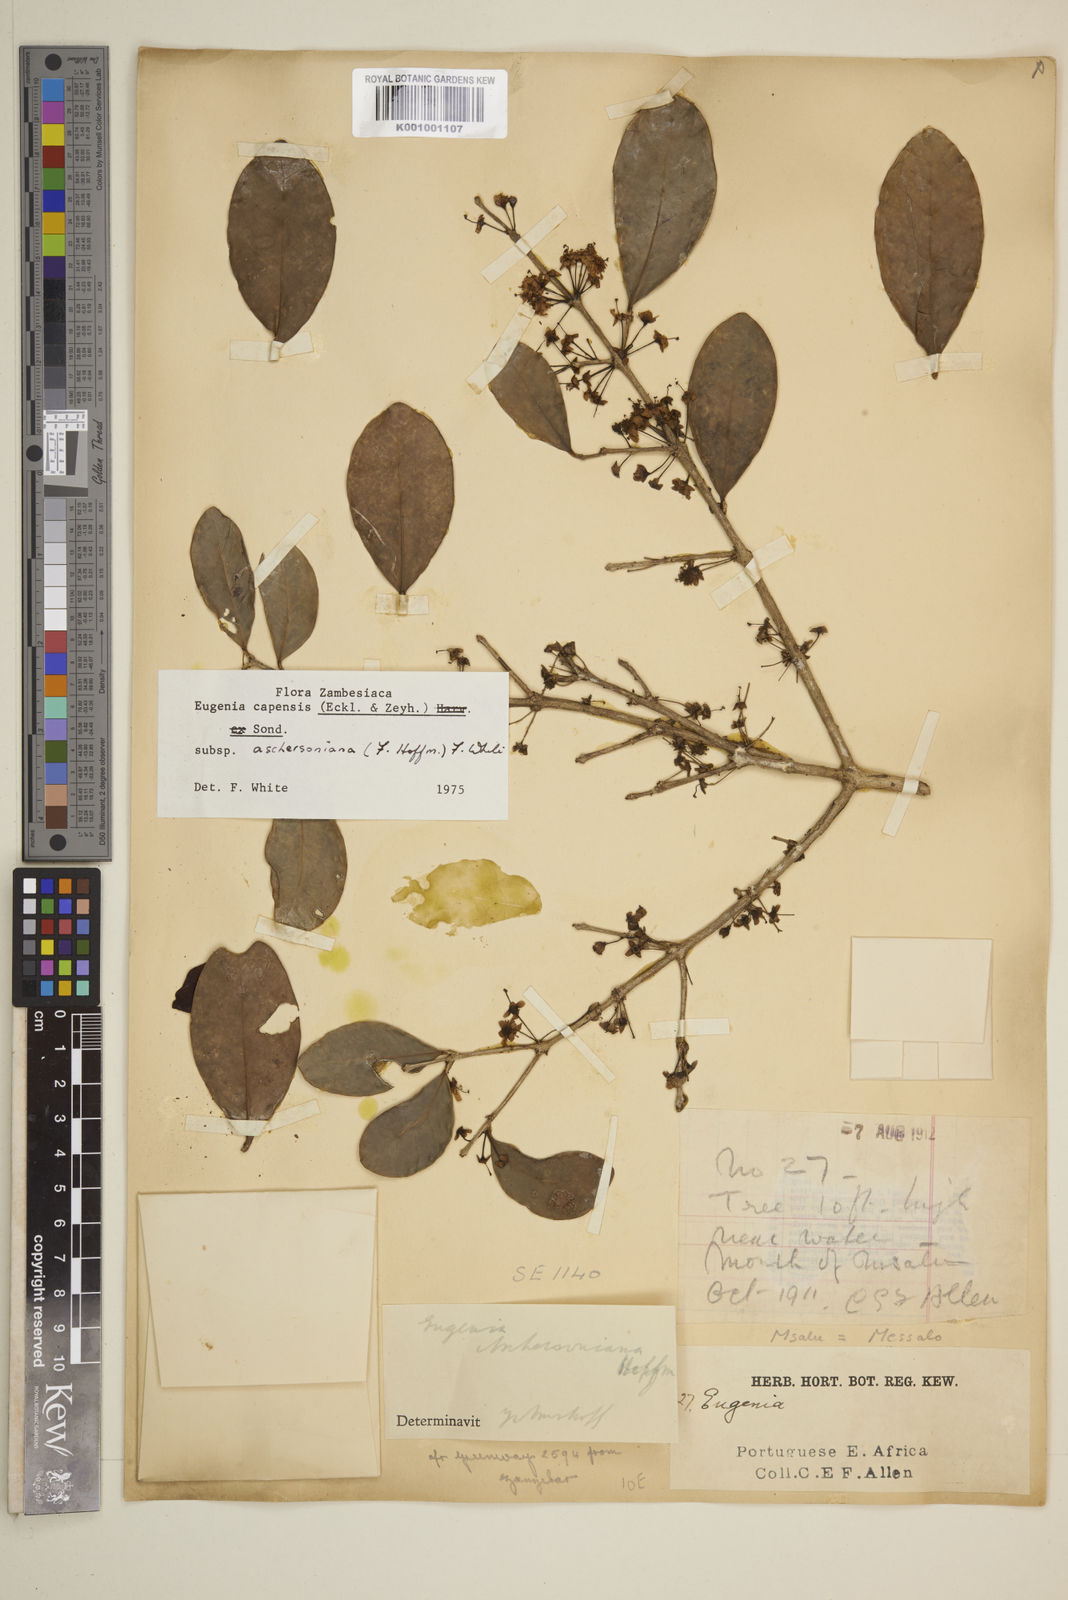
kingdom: Plantae
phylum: Tracheophyta
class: Magnoliopsida
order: Myrtales
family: Myrtaceae
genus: Eugenia
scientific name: Eugenia aschersoniana
